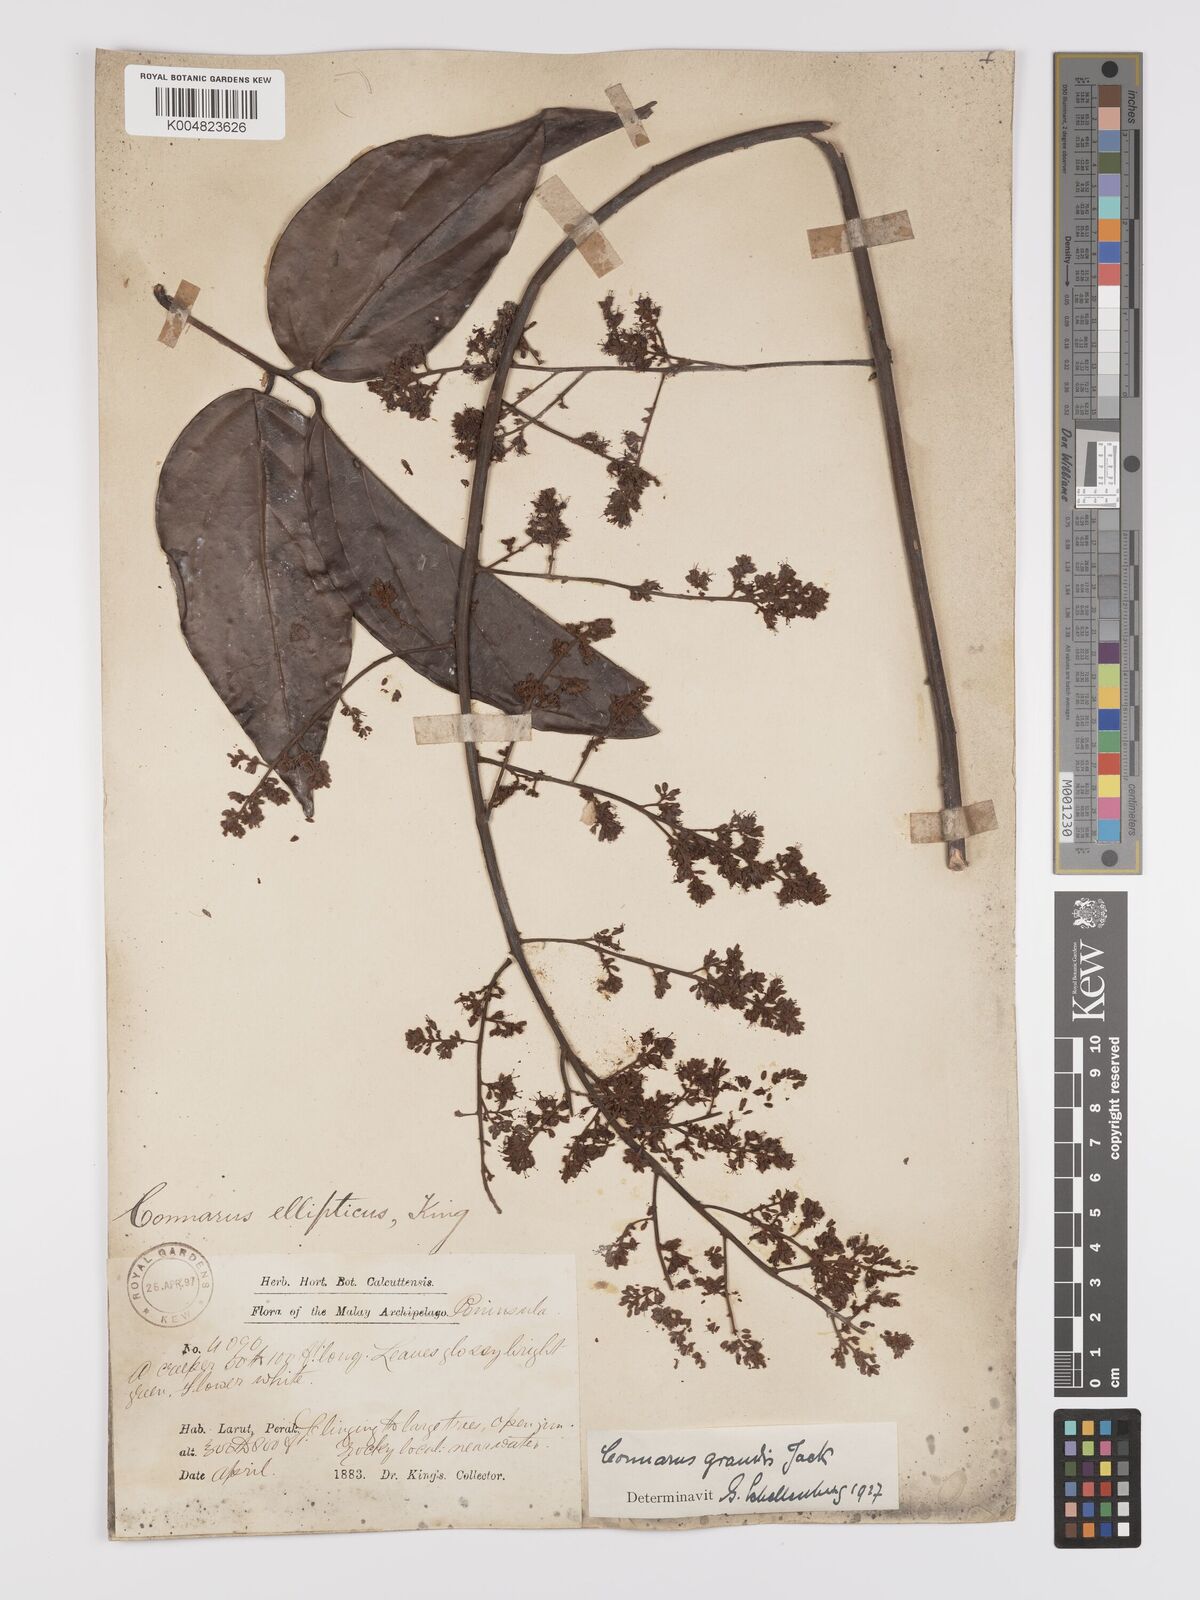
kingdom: Plantae
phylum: Tracheophyta
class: Magnoliopsida
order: Oxalidales
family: Connaraceae
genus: Connarus
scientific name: Connarus grandis
